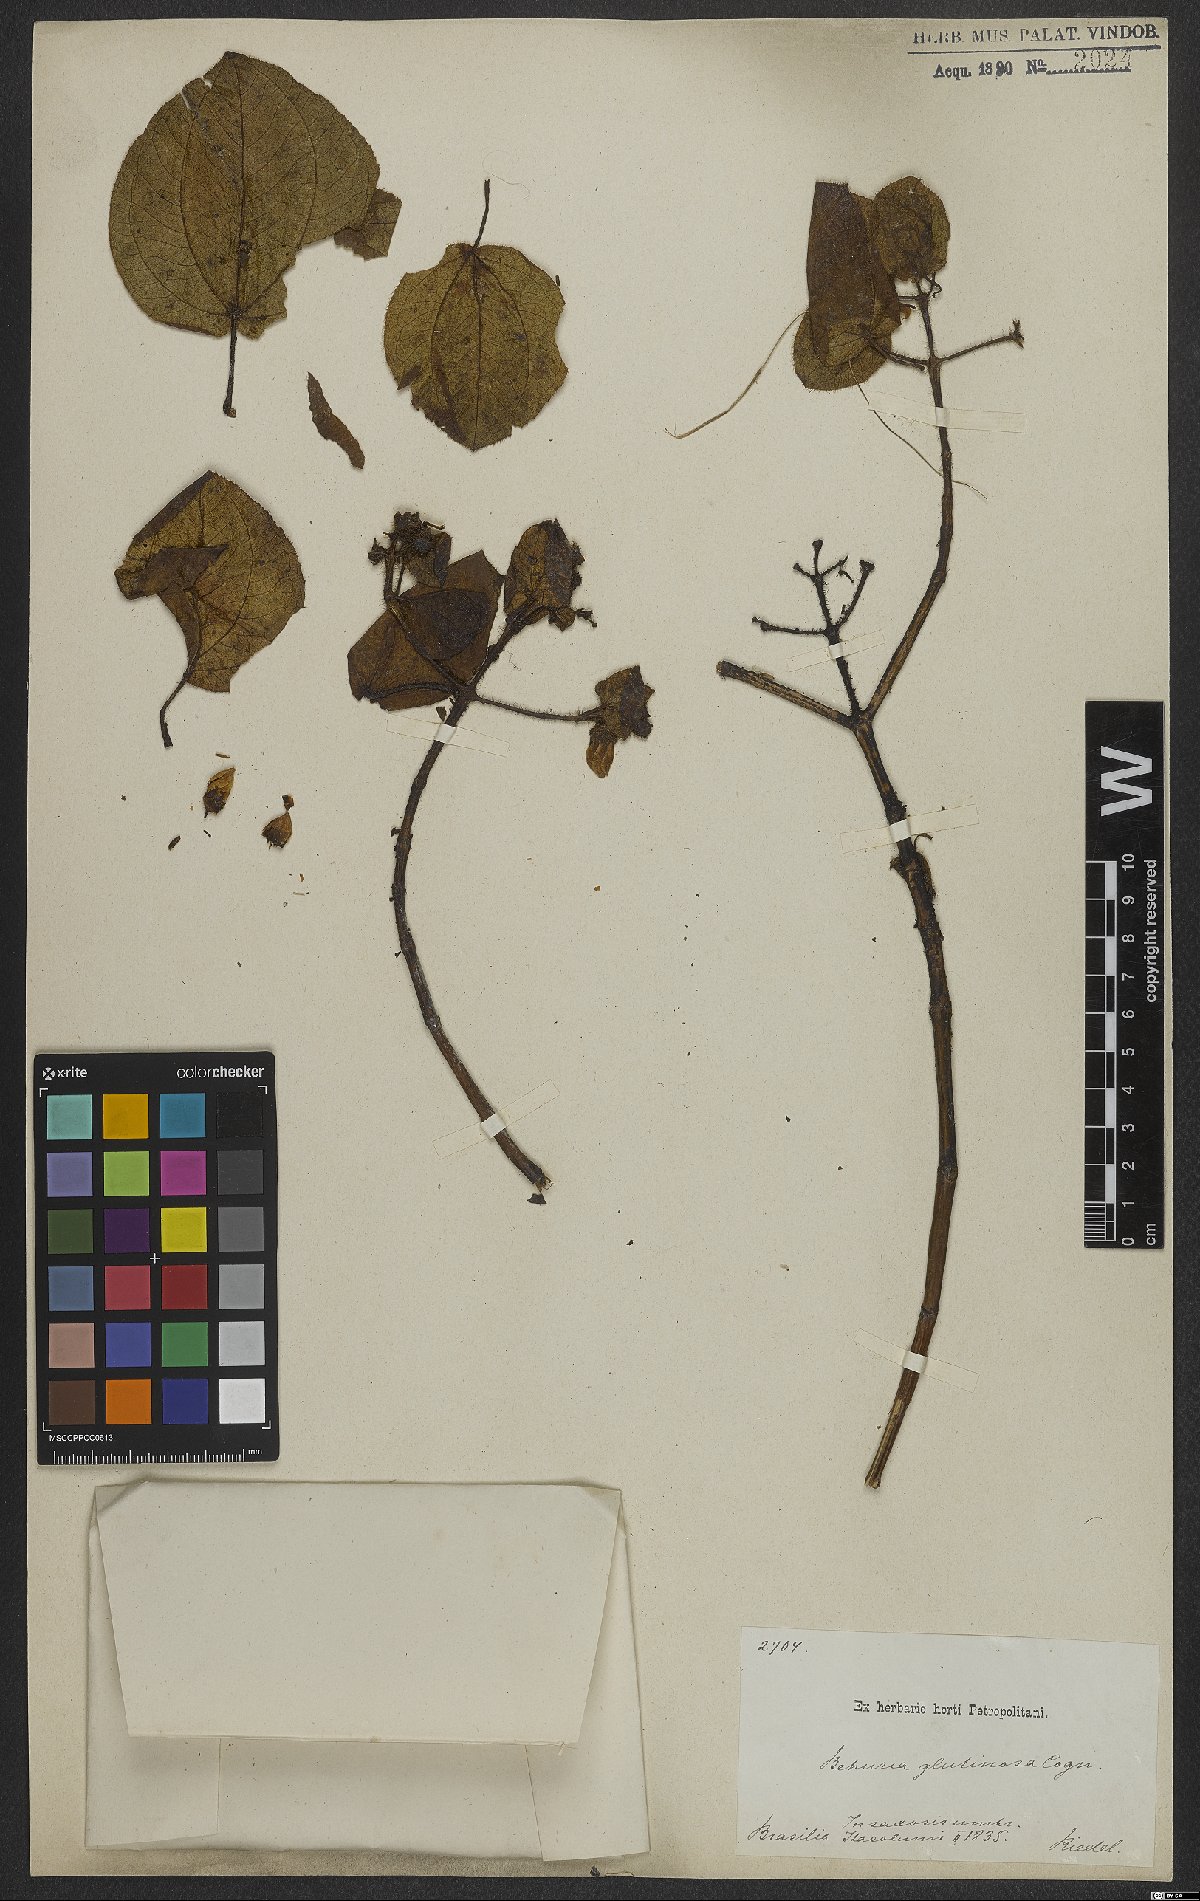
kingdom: Plantae
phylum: Tracheophyta
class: Magnoliopsida
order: Myrtales
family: Melastomataceae
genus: Huberia
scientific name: Huberia glutinosa
